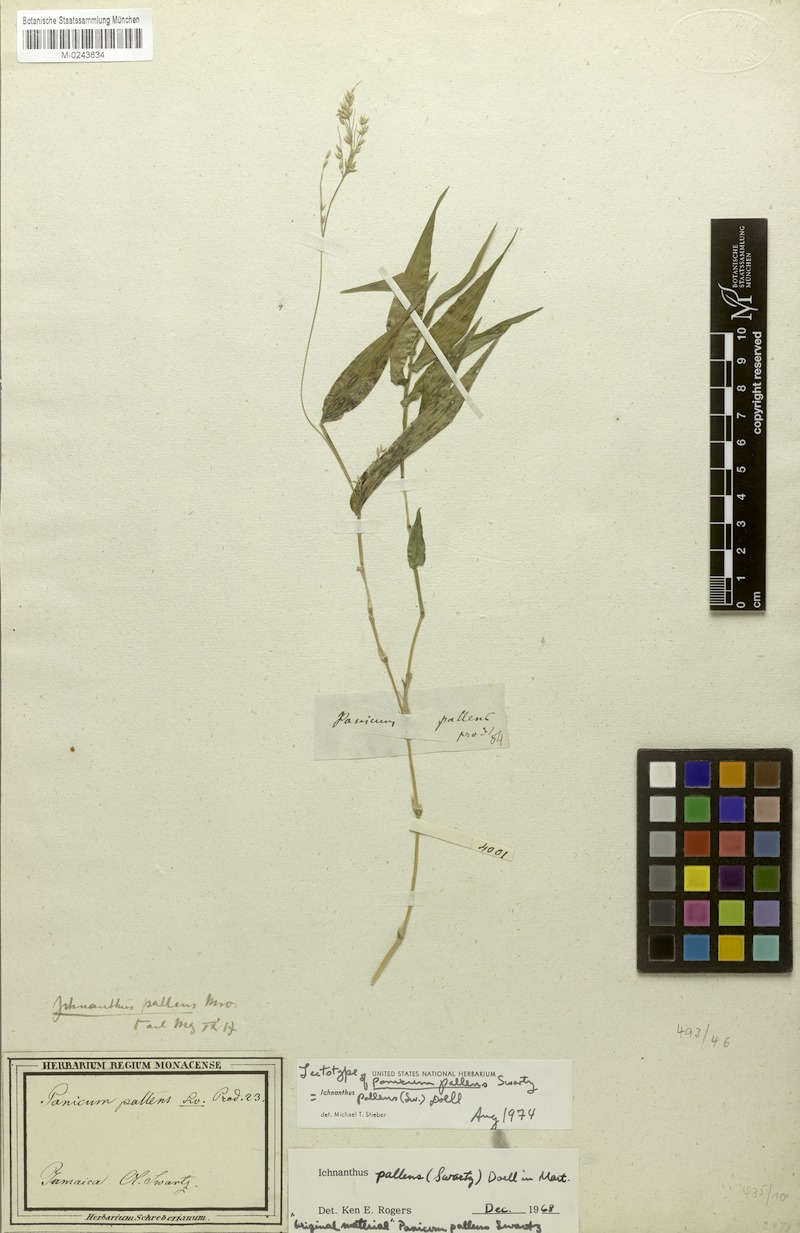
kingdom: Plantae
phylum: Tracheophyta
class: Liliopsida
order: Poales
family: Poaceae
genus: Ichnanthus
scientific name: Ichnanthus pallens
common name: Water grass
